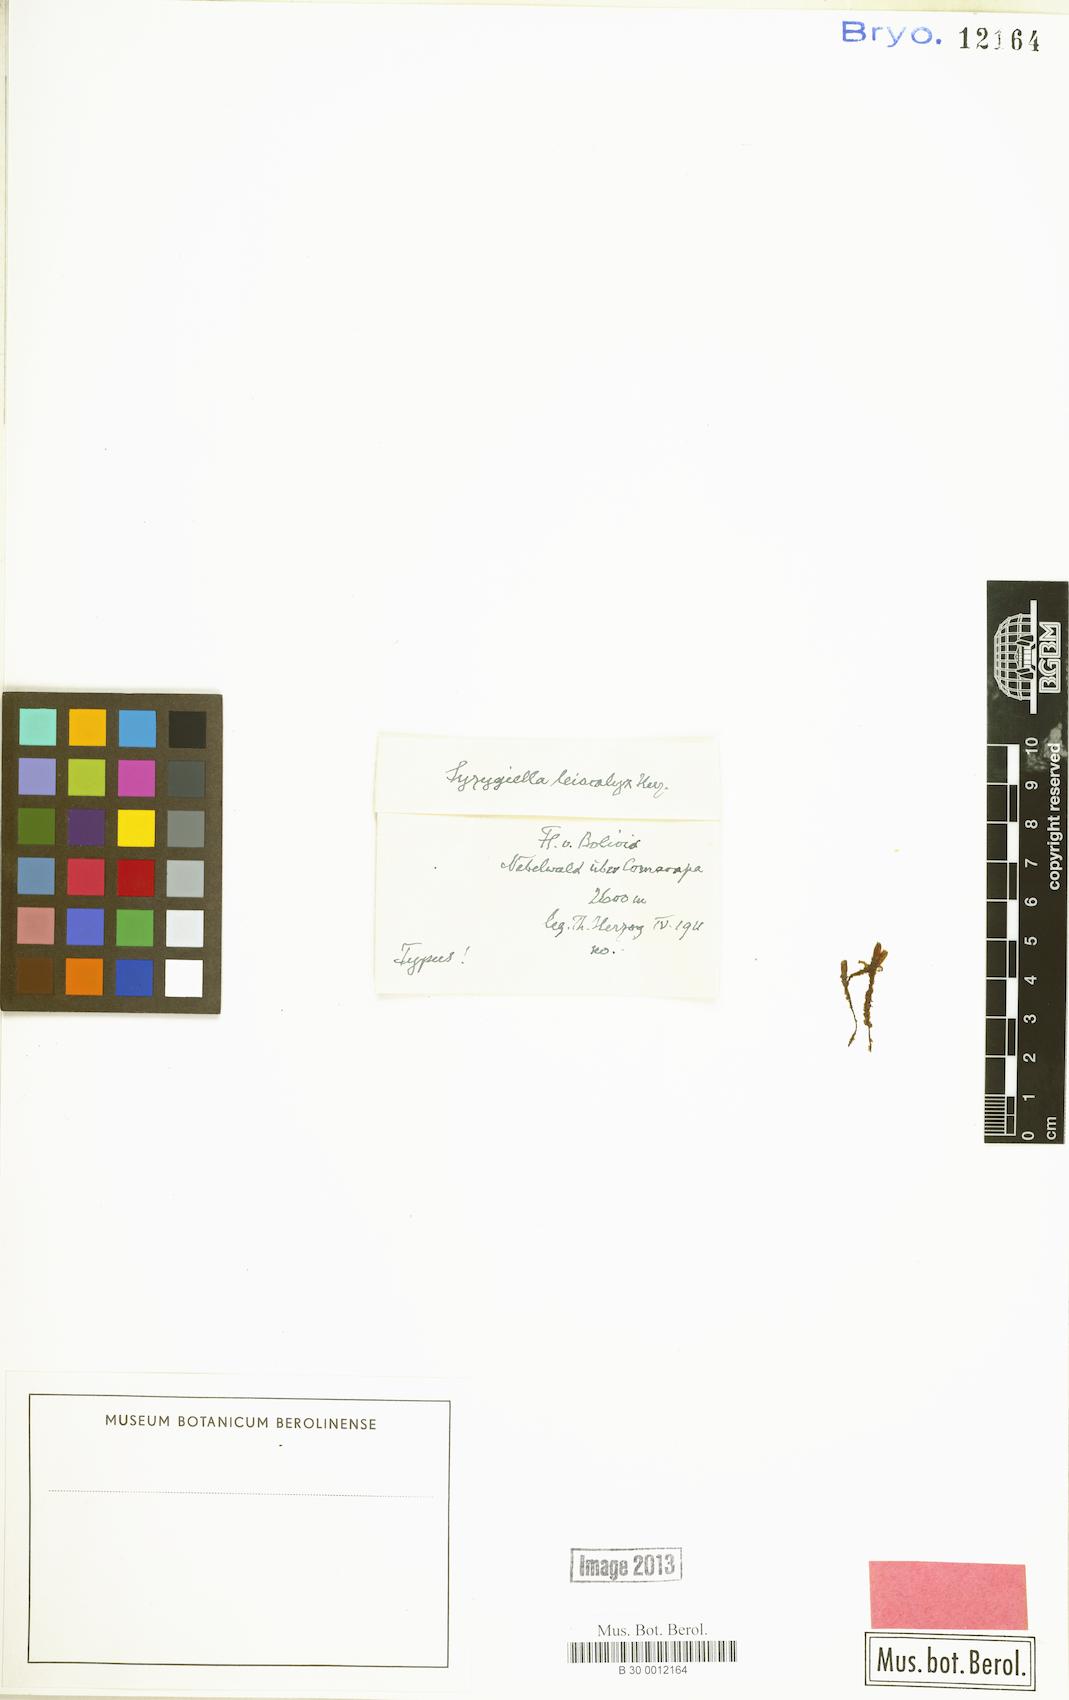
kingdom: Plantae
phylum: Marchantiophyta
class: Jungermanniopsida
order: Jungermanniales
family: Adelanthaceae
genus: Syzygiella
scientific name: Syzygiella
